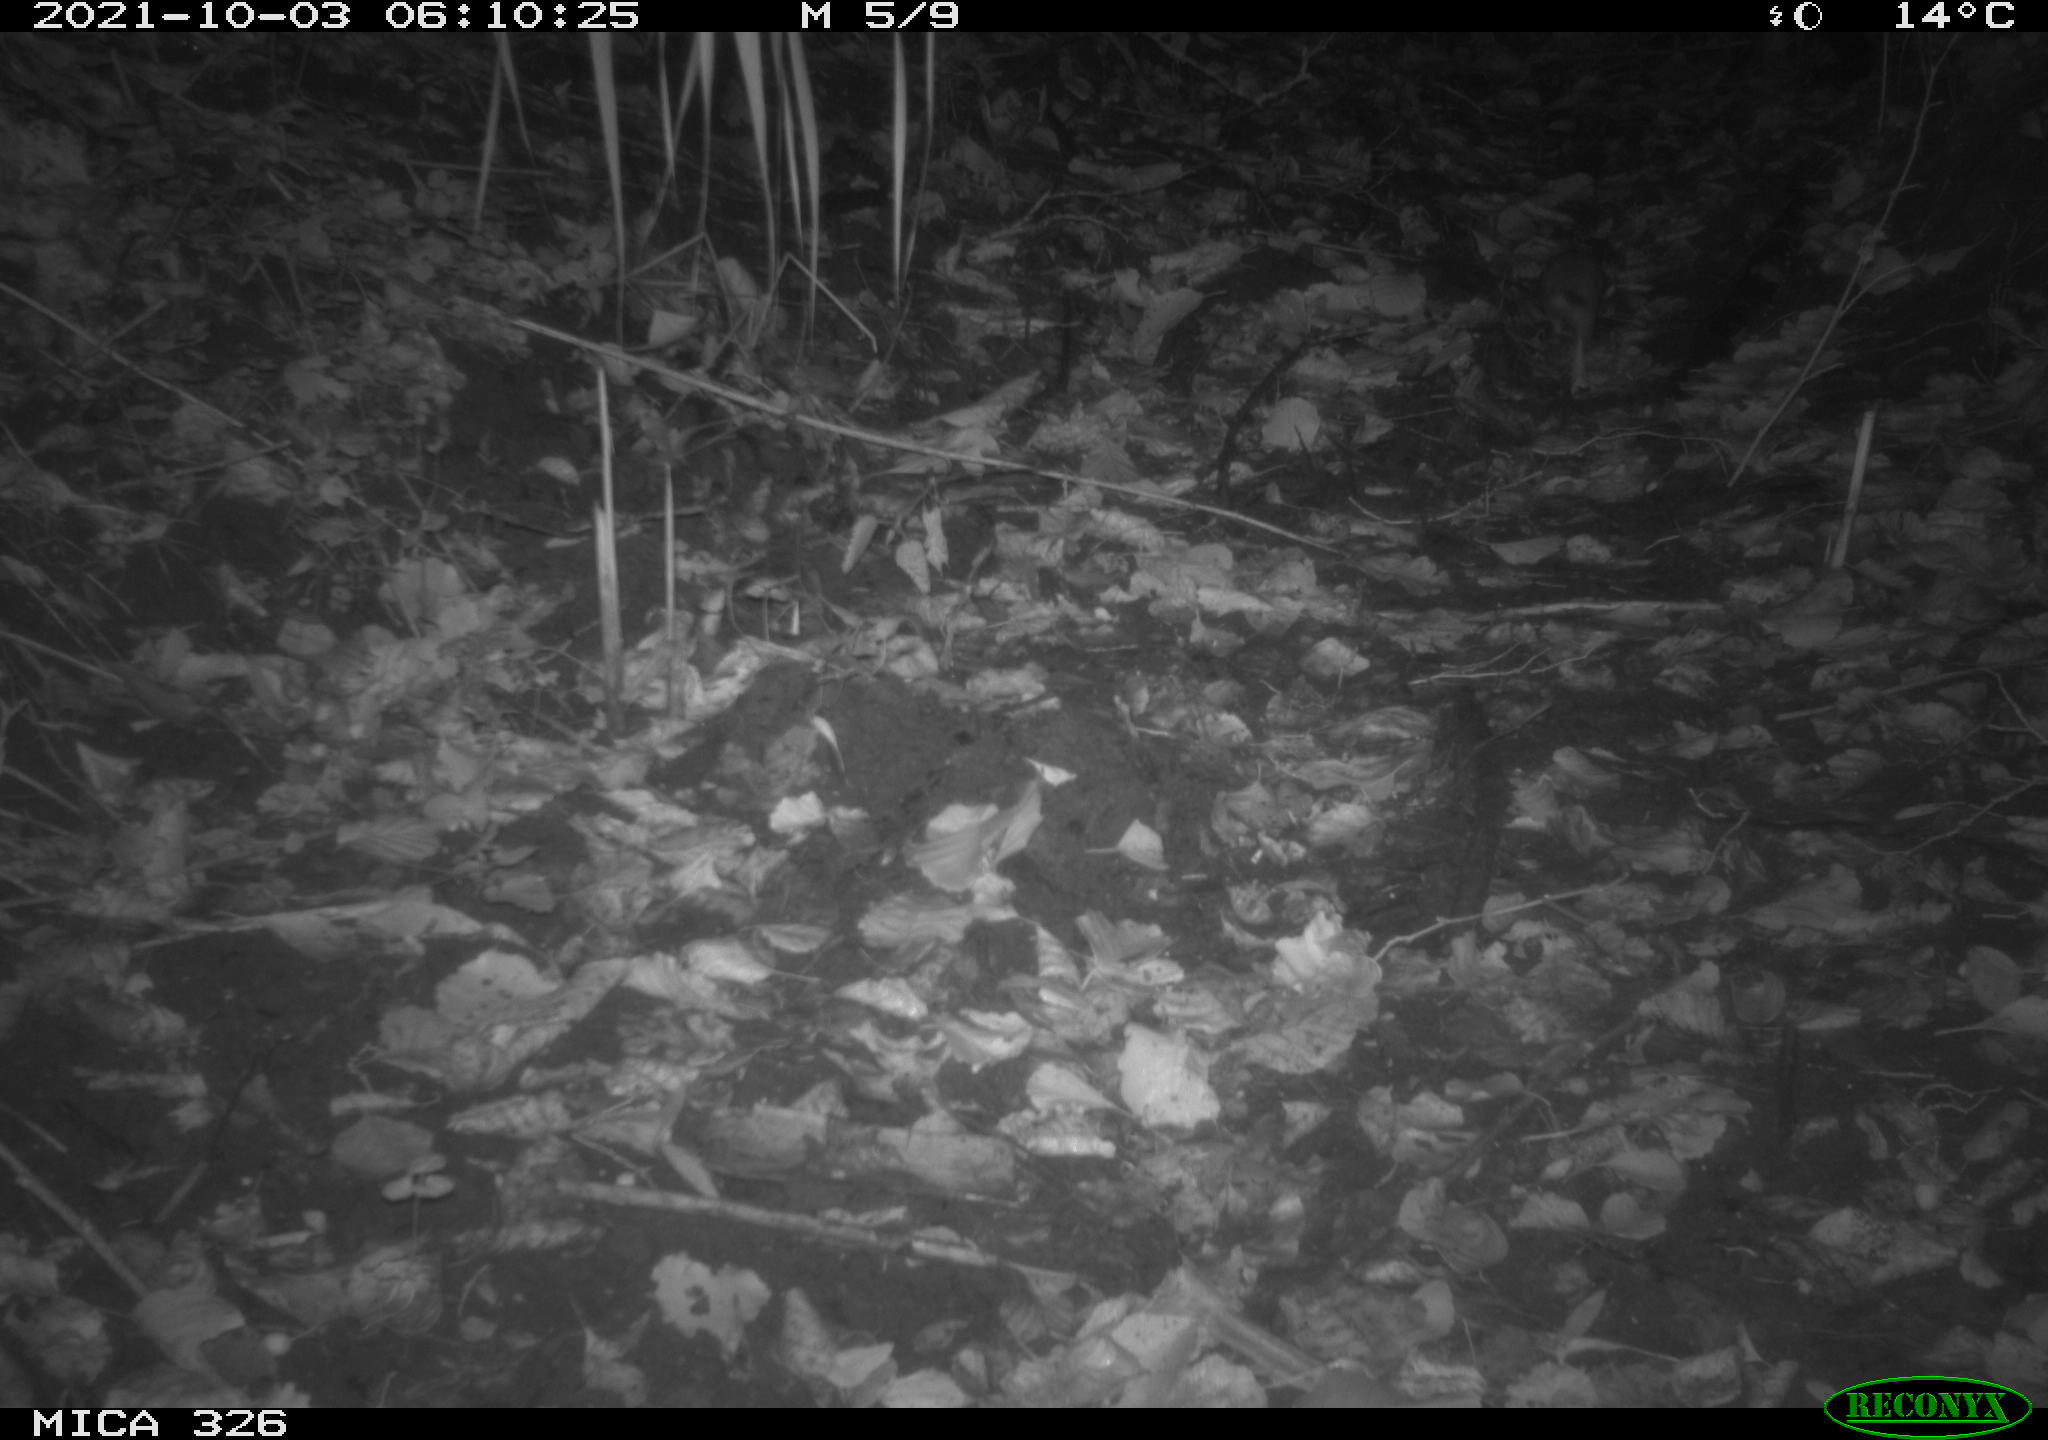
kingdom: Animalia
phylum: Chordata
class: Mammalia
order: Rodentia
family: Muridae
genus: Rattus
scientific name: Rattus norvegicus
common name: Brown rat
